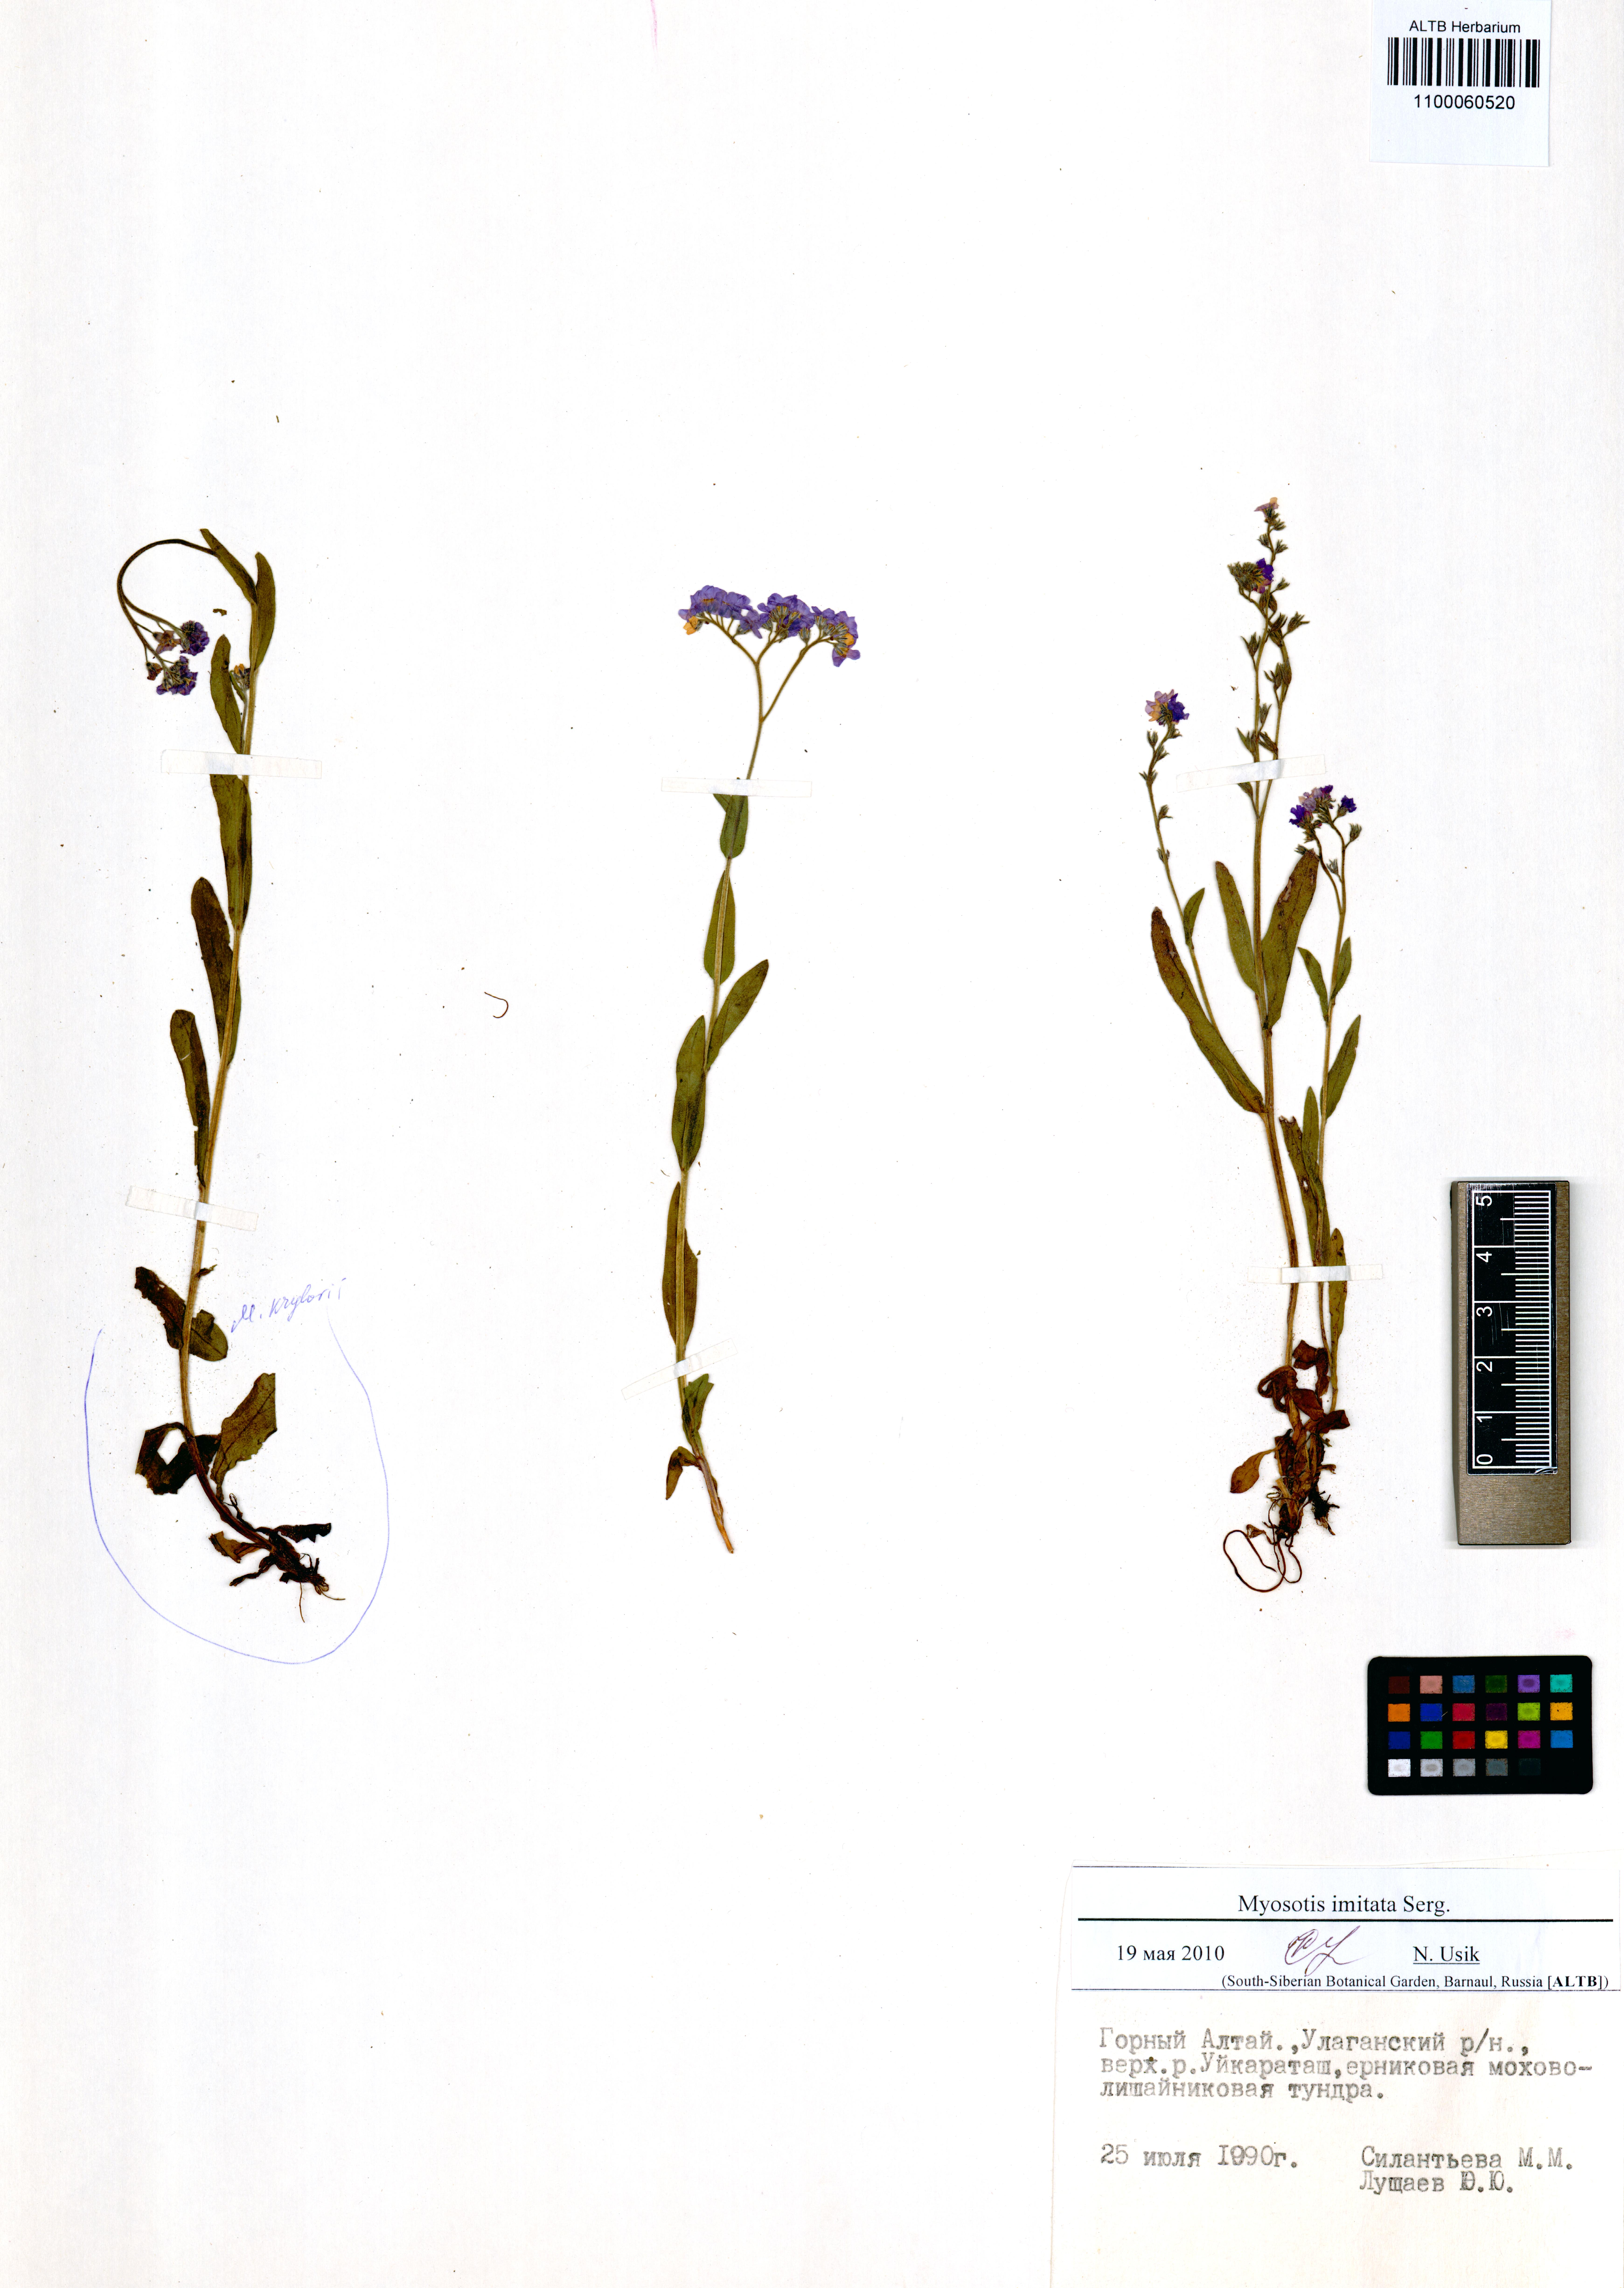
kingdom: Plantae
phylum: Tracheophyta
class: Magnoliopsida
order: Boraginales
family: Boraginaceae
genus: Myosotis
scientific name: Myosotis imitata
